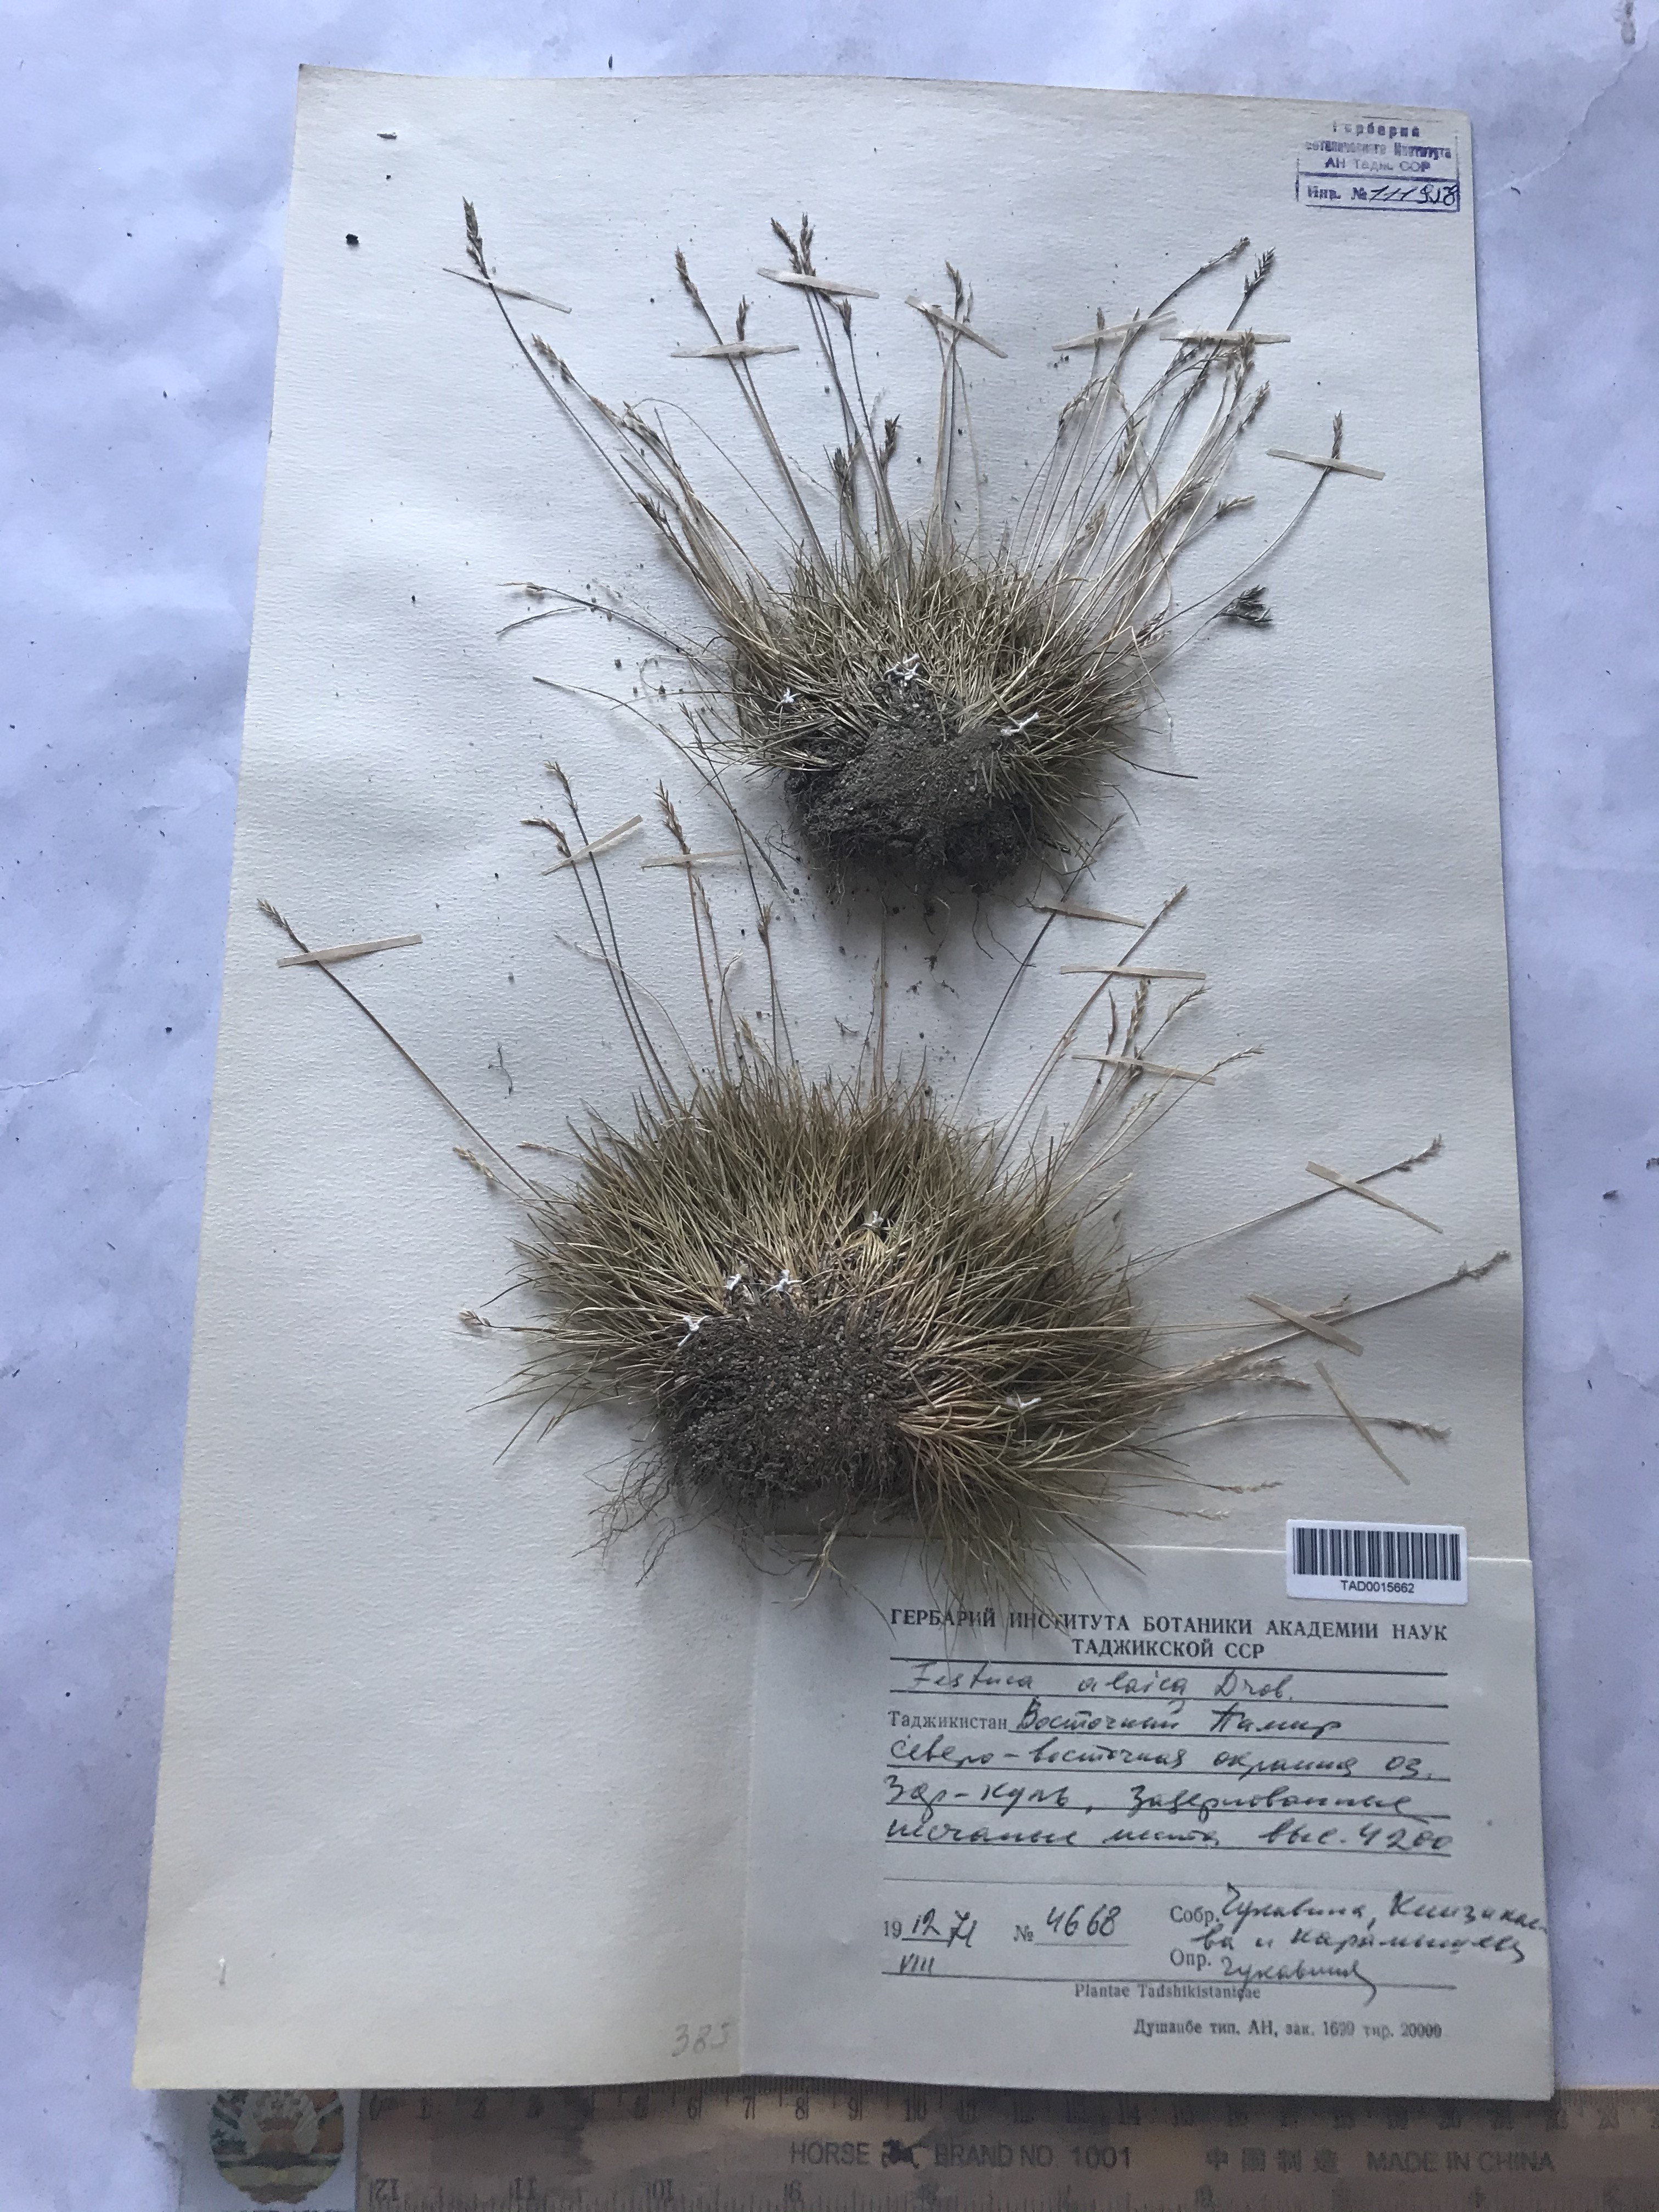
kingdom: Plantae
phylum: Tracheophyta
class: Liliopsida
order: Poales
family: Poaceae
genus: Festuca
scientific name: Festuca alaica
